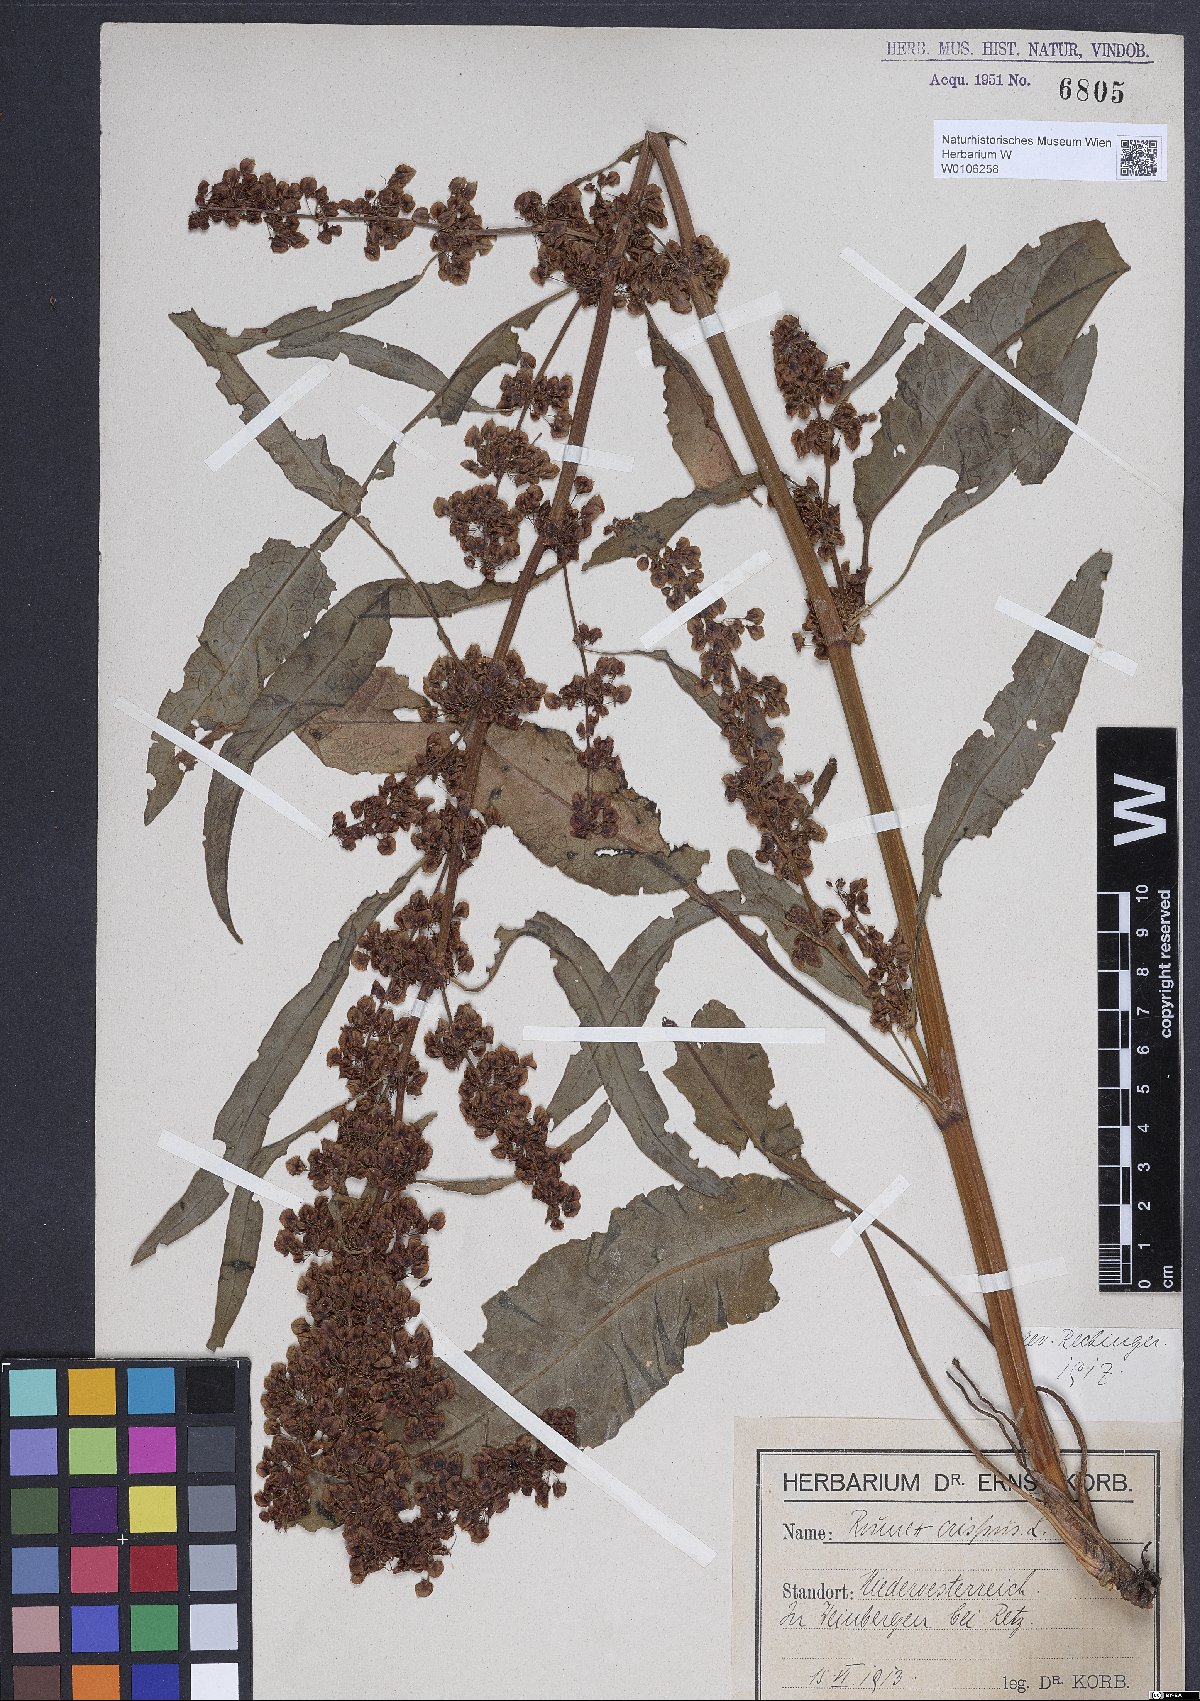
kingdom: Plantae
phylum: Tracheophyta
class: Magnoliopsida
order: Caryophyllales
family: Polygonaceae
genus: Rumex
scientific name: Rumex crispus
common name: Curled dock
